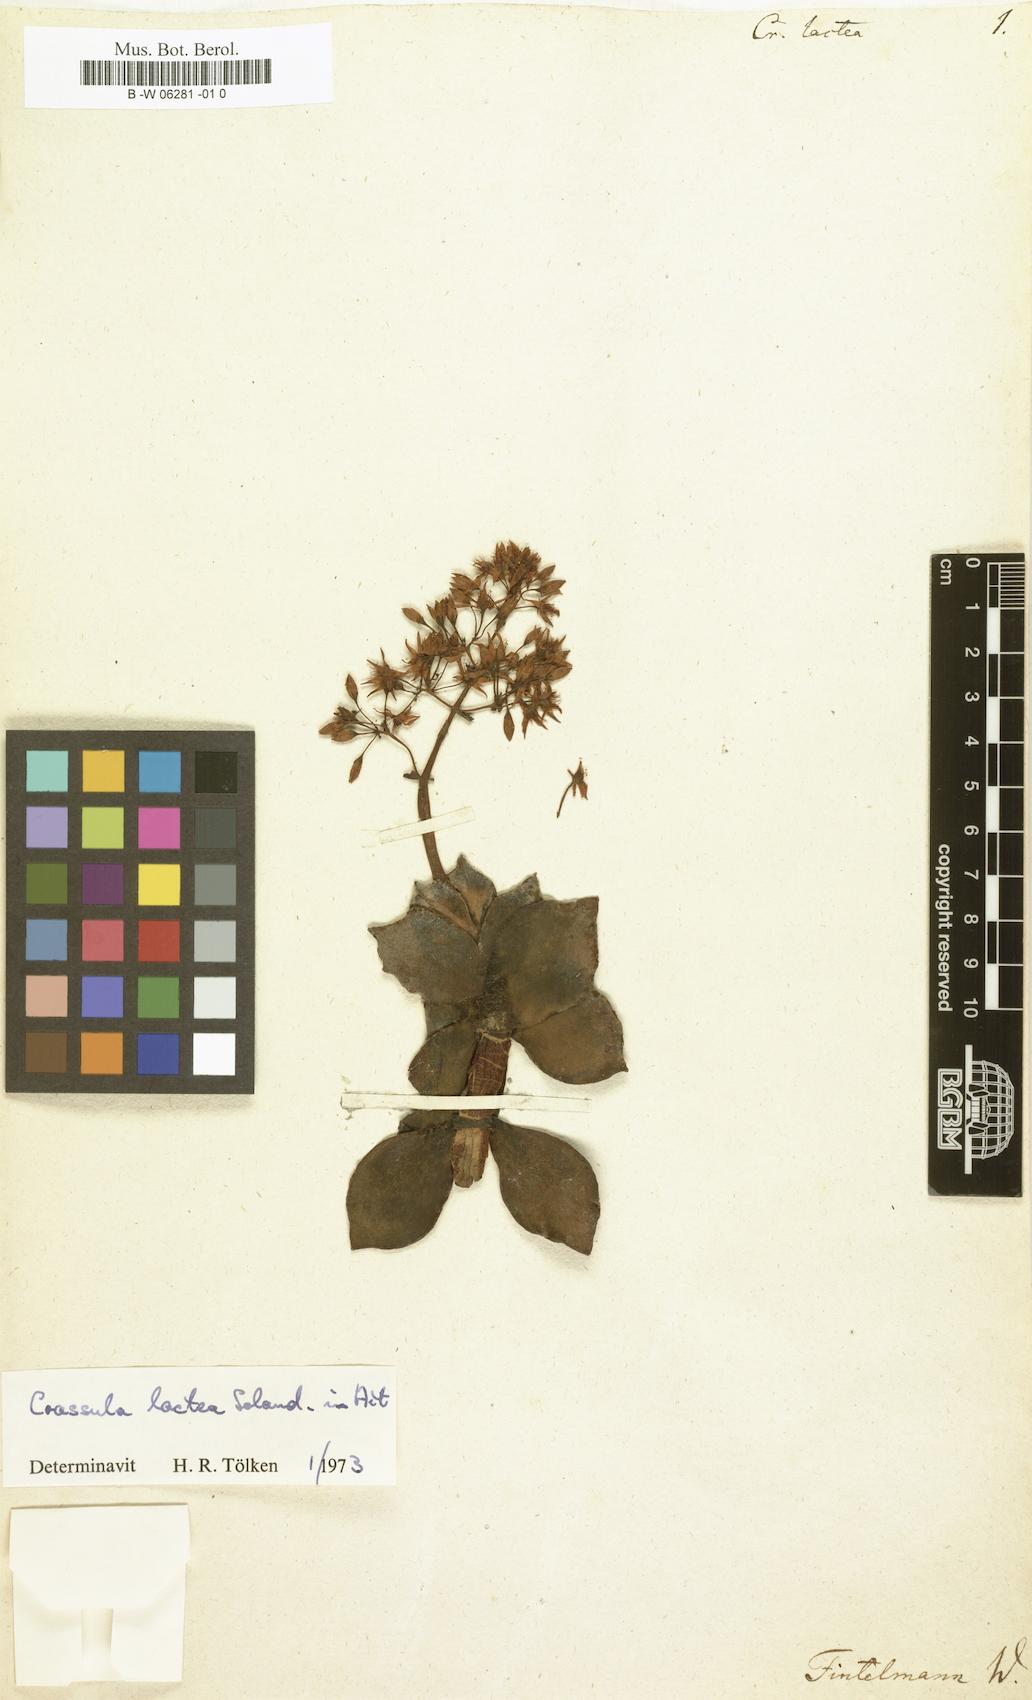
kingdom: Plantae
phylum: Tracheophyta
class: Magnoliopsida
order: Saxifragales
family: Crassulaceae
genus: Crassula
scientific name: Crassula lactea
